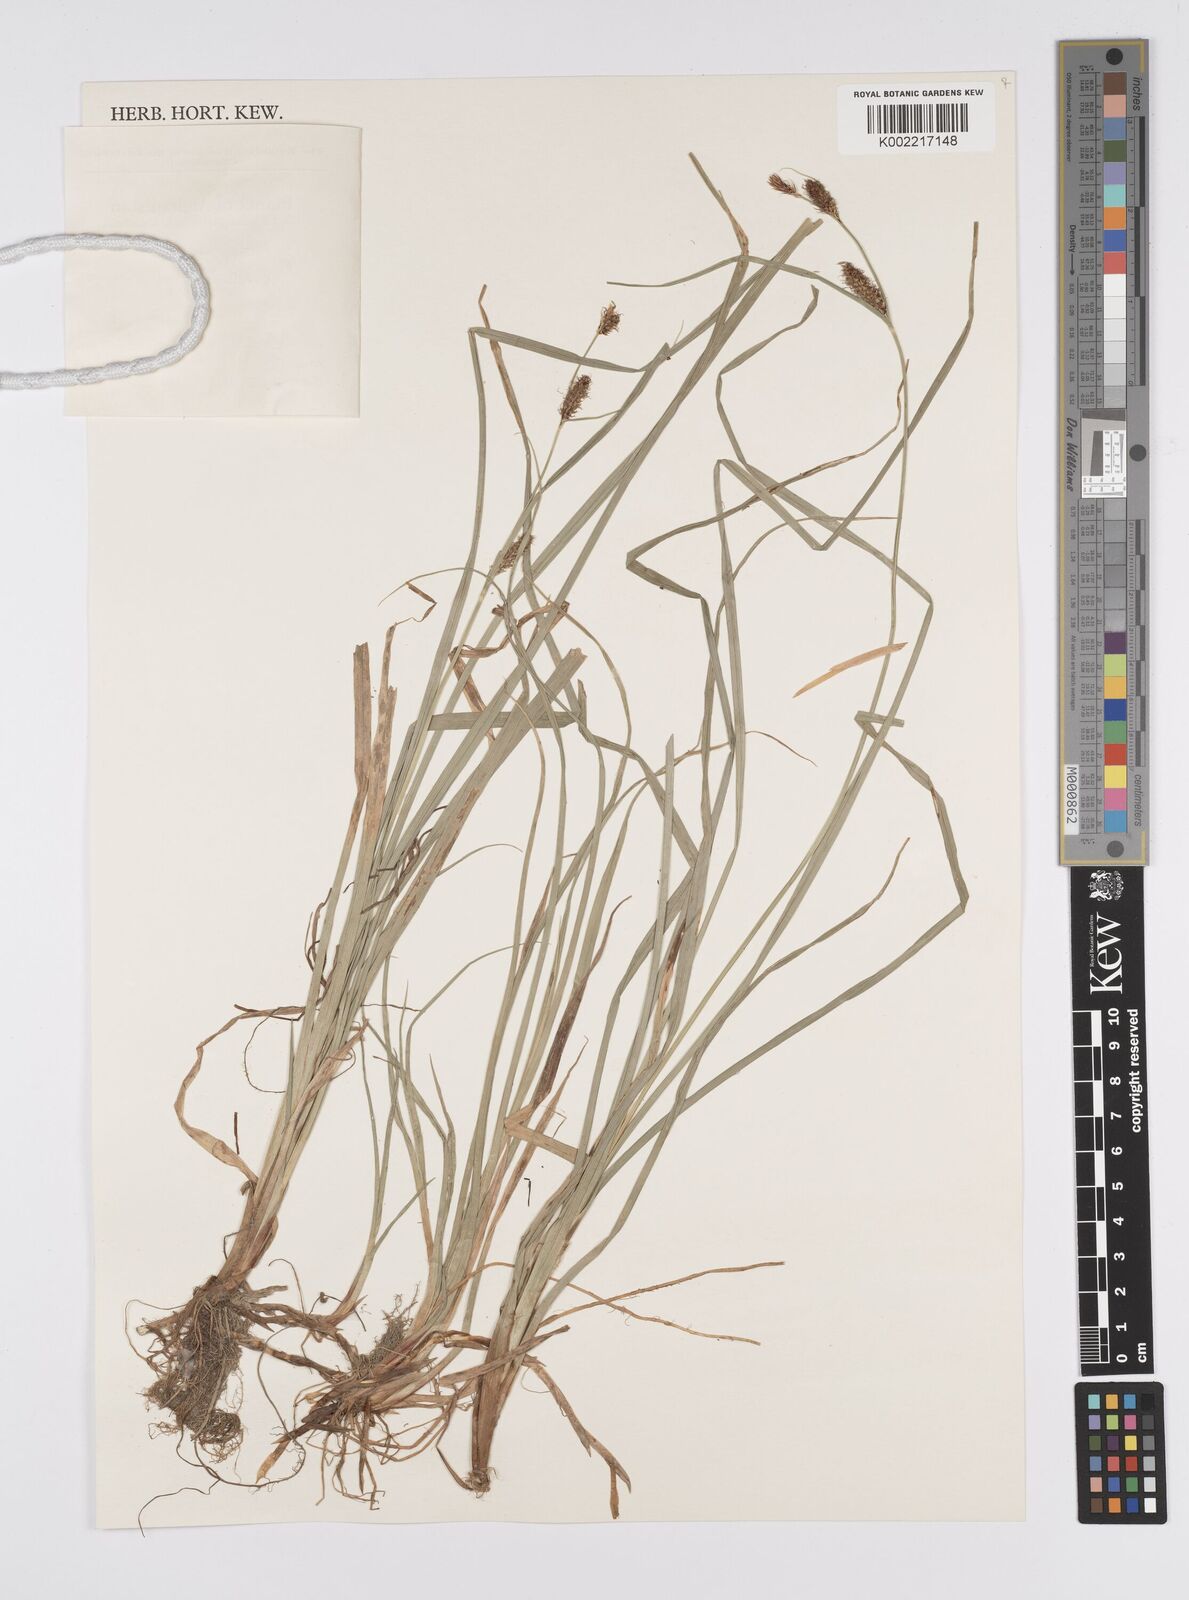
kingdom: Plantae
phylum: Tracheophyta
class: Liliopsida
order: Poales
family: Cyperaceae
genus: Carex
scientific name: Carex heterostachya
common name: Different-spike sedge
